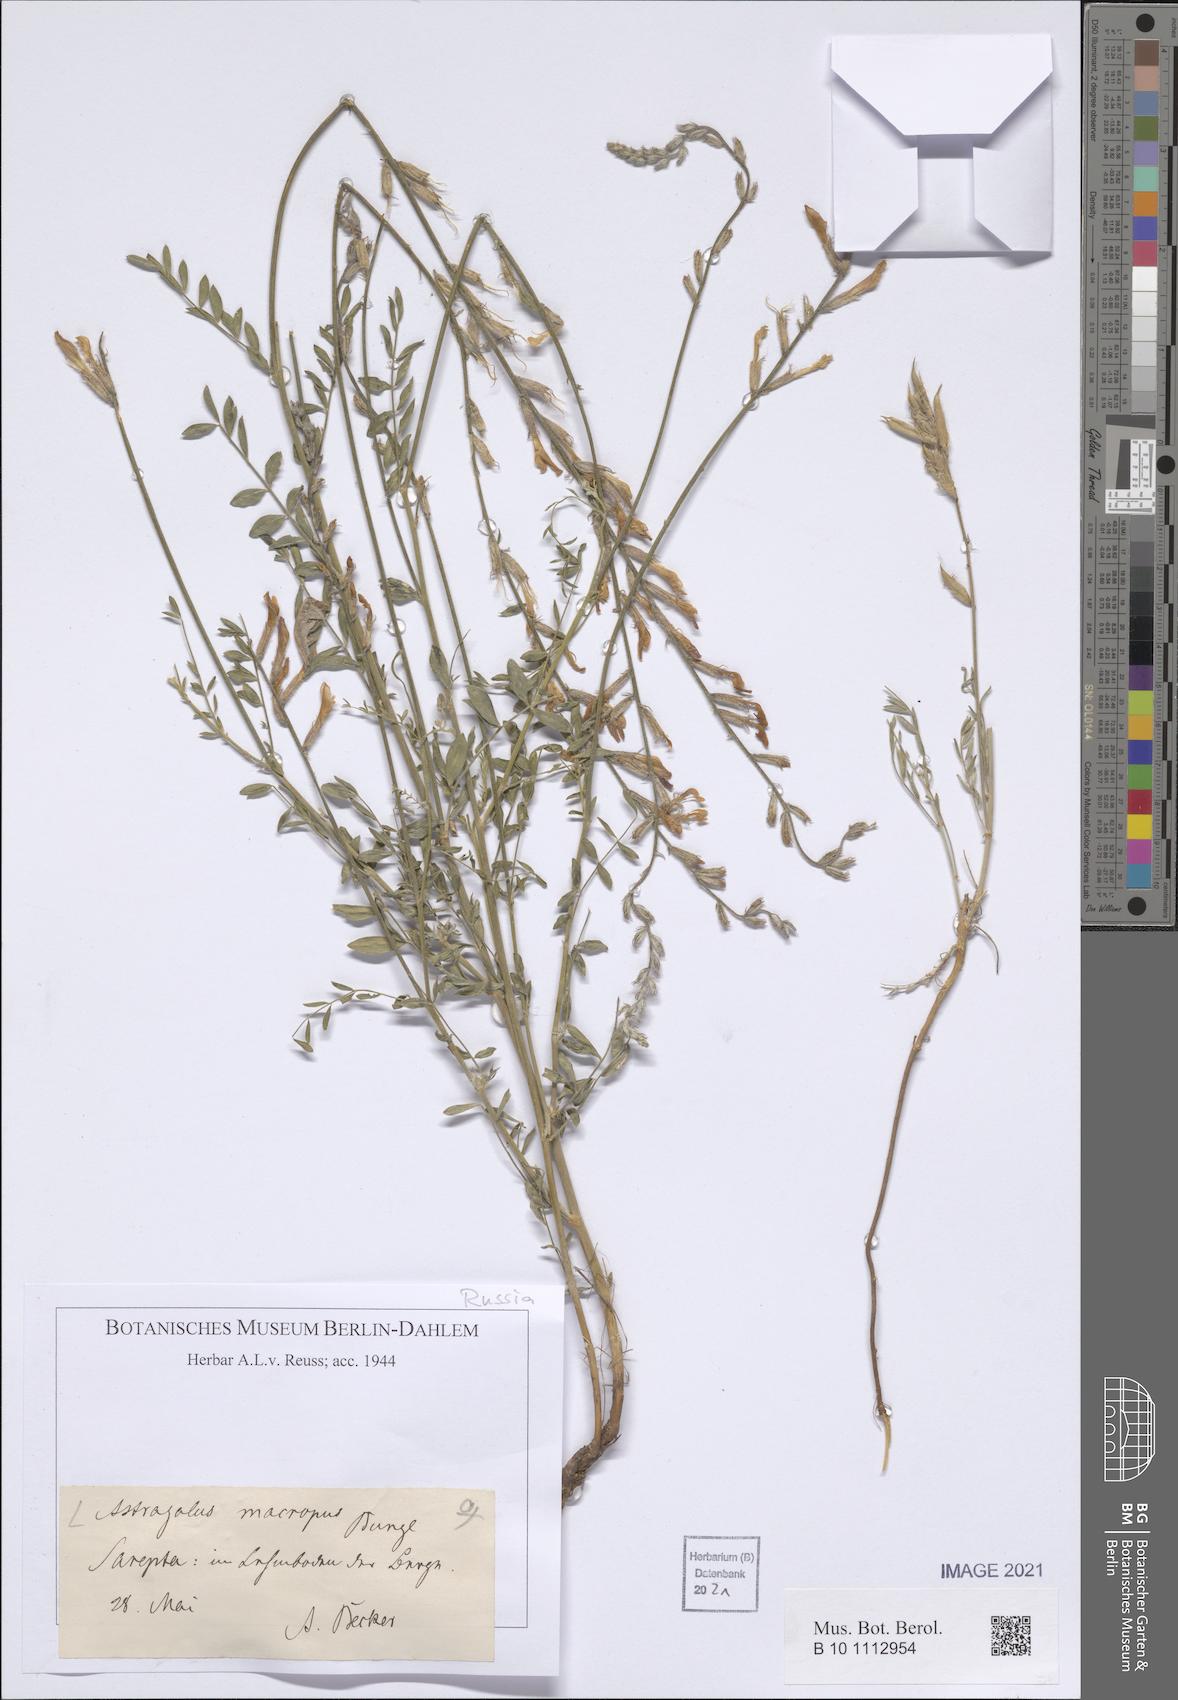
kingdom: Plantae
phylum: Tracheophyta
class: Magnoliopsida
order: Fabales
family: Fabaceae
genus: Astragalus
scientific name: Astragalus macropus
